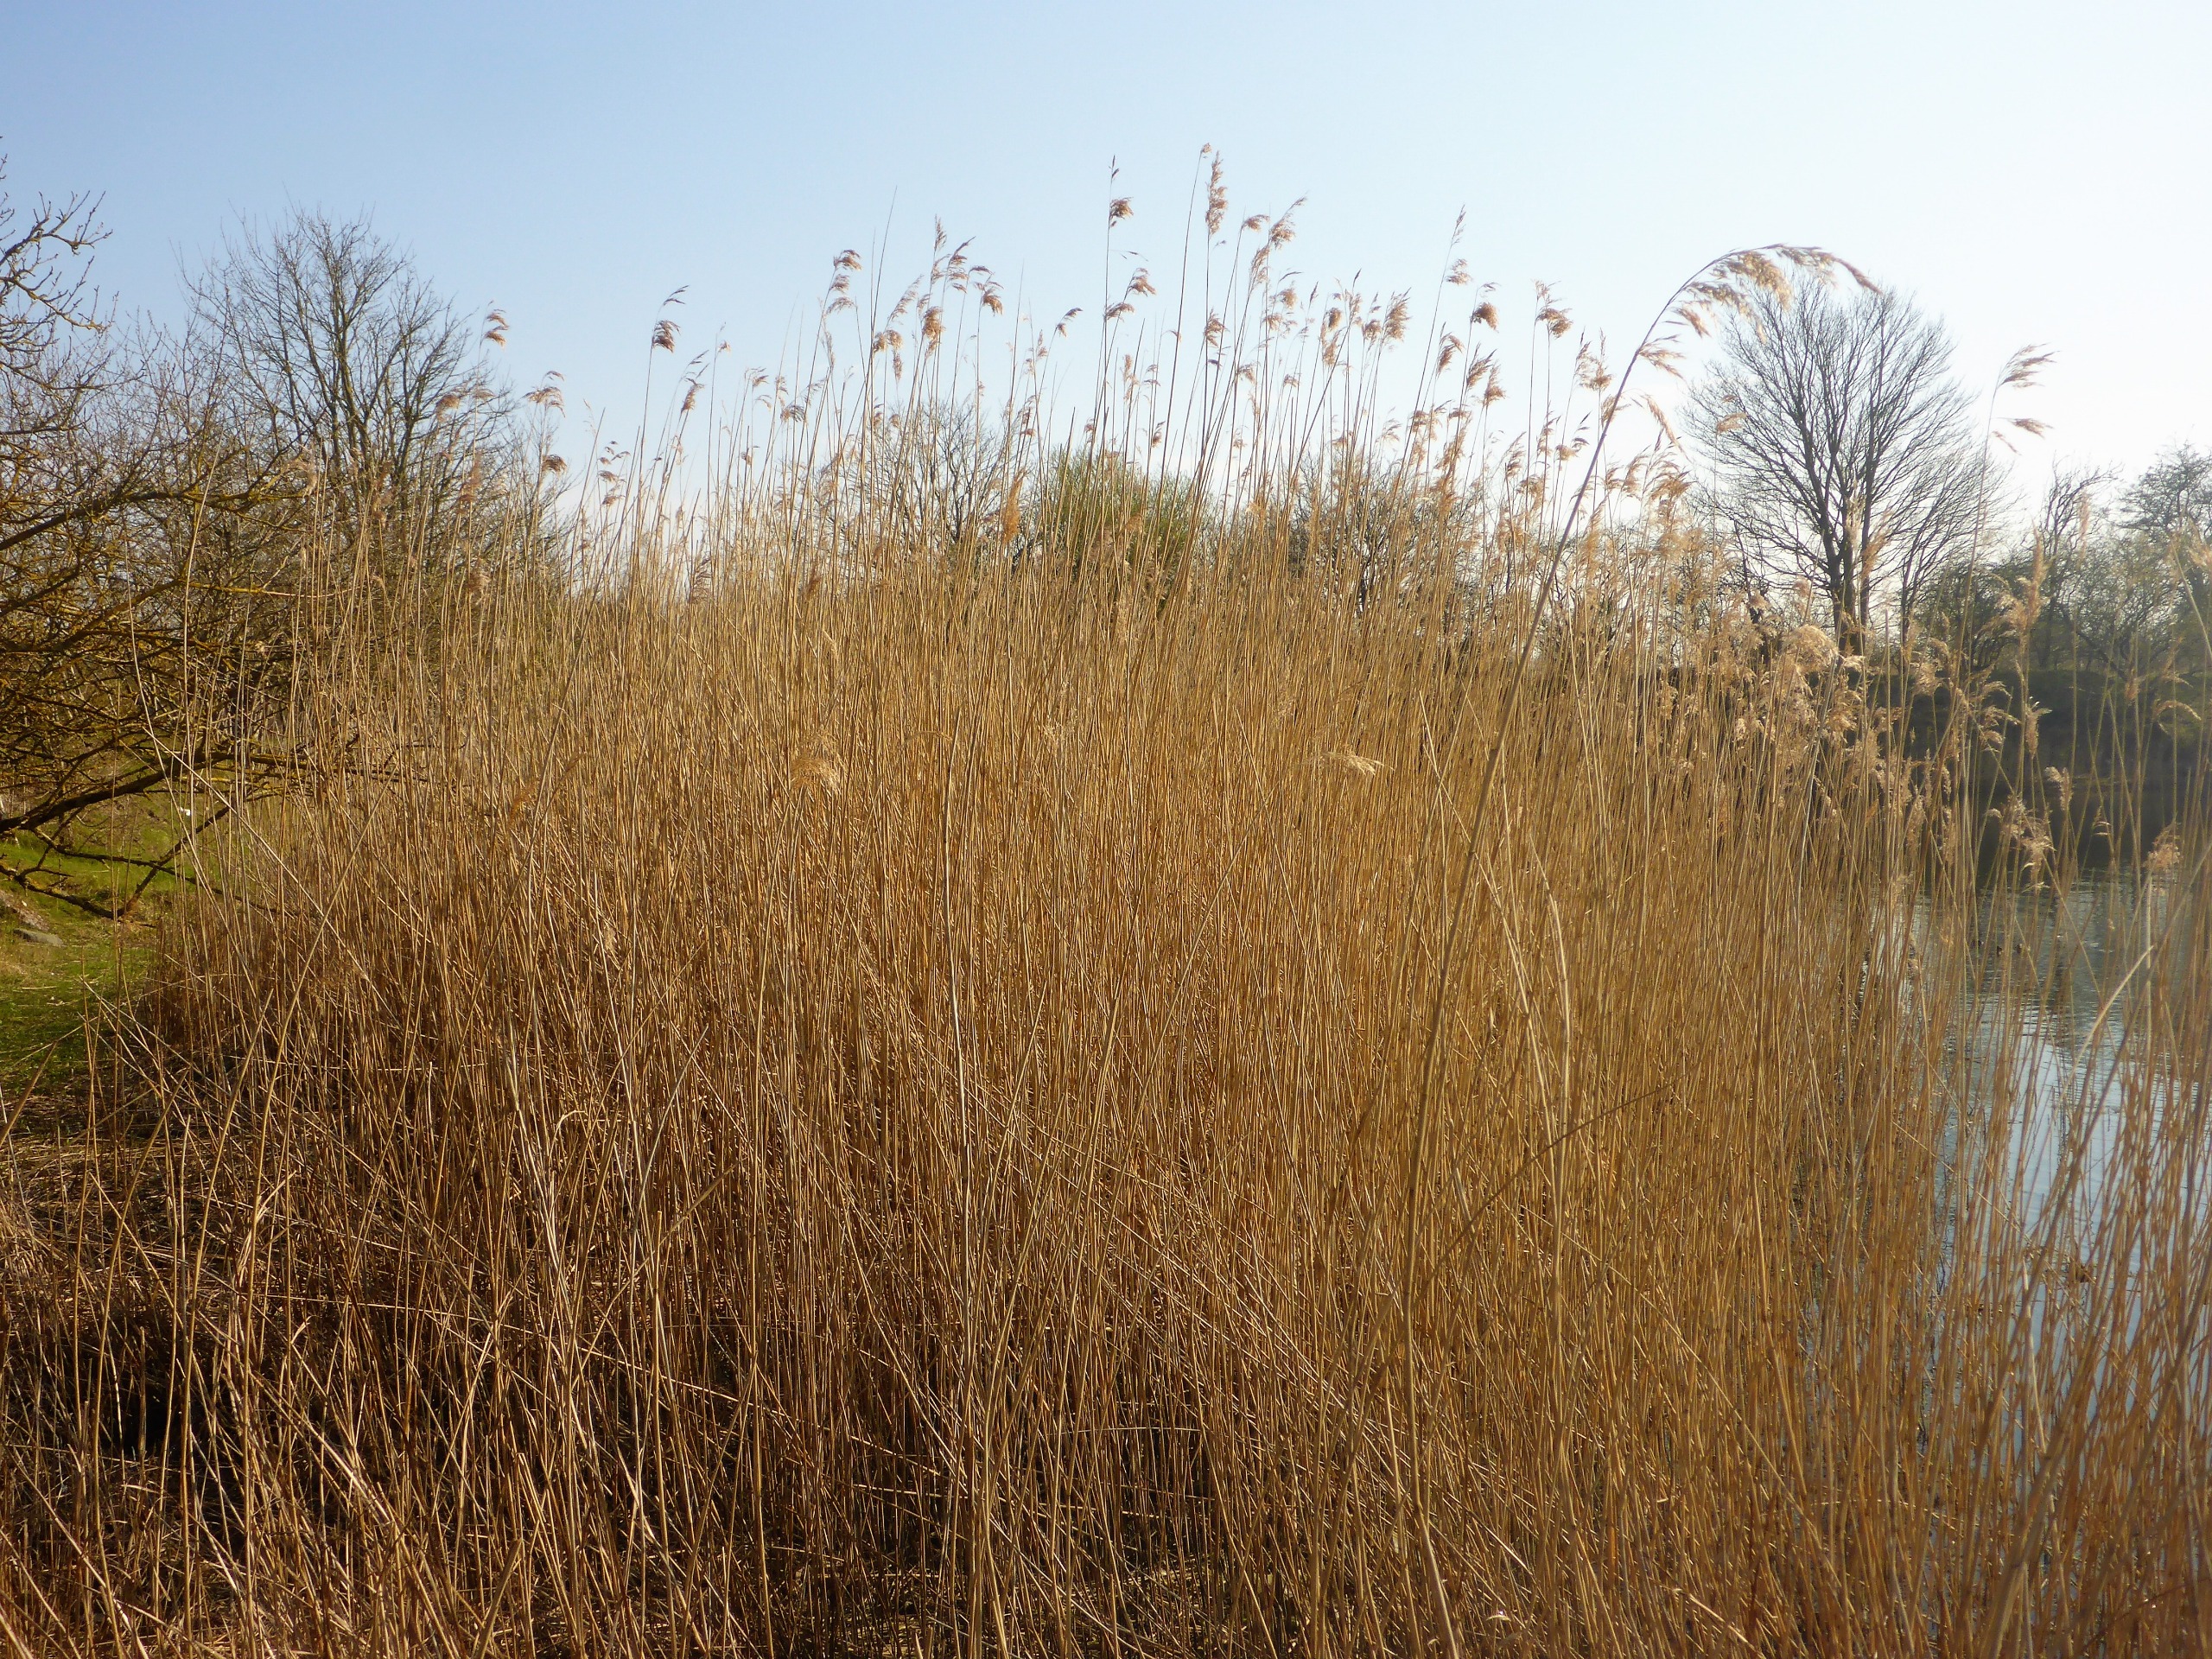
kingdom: Plantae
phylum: Tracheophyta
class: Liliopsida
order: Poales
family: Poaceae
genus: Phragmites
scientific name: Phragmites australis
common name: Tagrør
